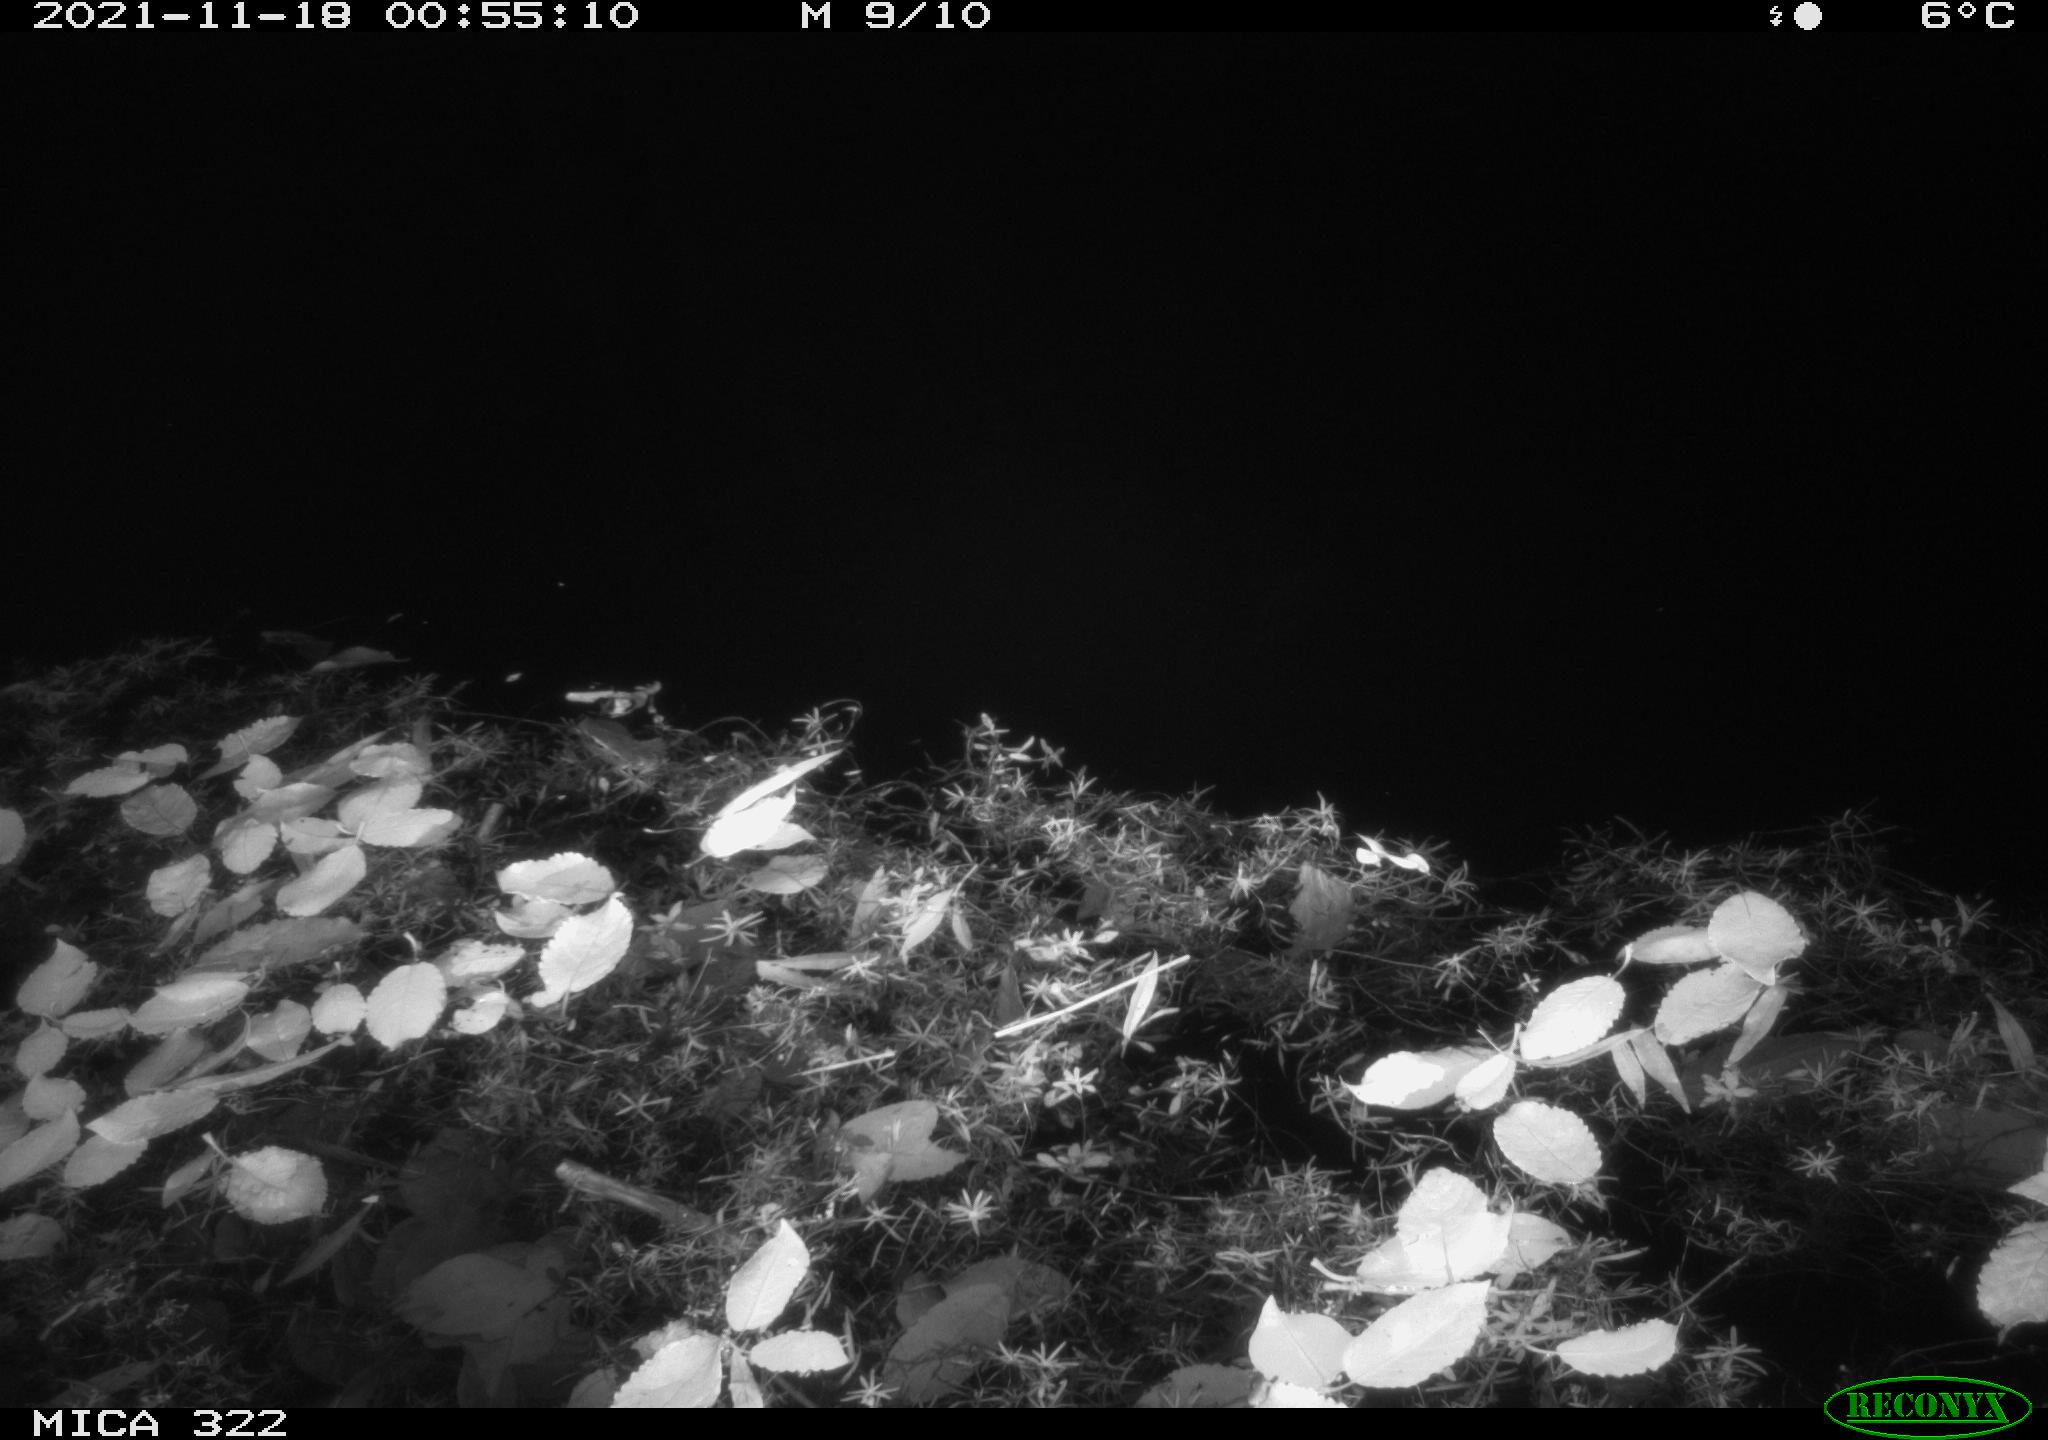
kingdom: Animalia
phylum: Chordata
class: Mammalia
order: Rodentia
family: Muridae
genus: Rattus
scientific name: Rattus norvegicus
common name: Brown rat
